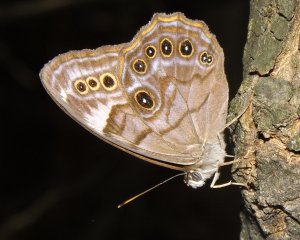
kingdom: Animalia
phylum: Arthropoda
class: Insecta
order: Lepidoptera
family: Nymphalidae
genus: Lethe
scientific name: Lethe anthedon
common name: Northern Pearly-Eye
